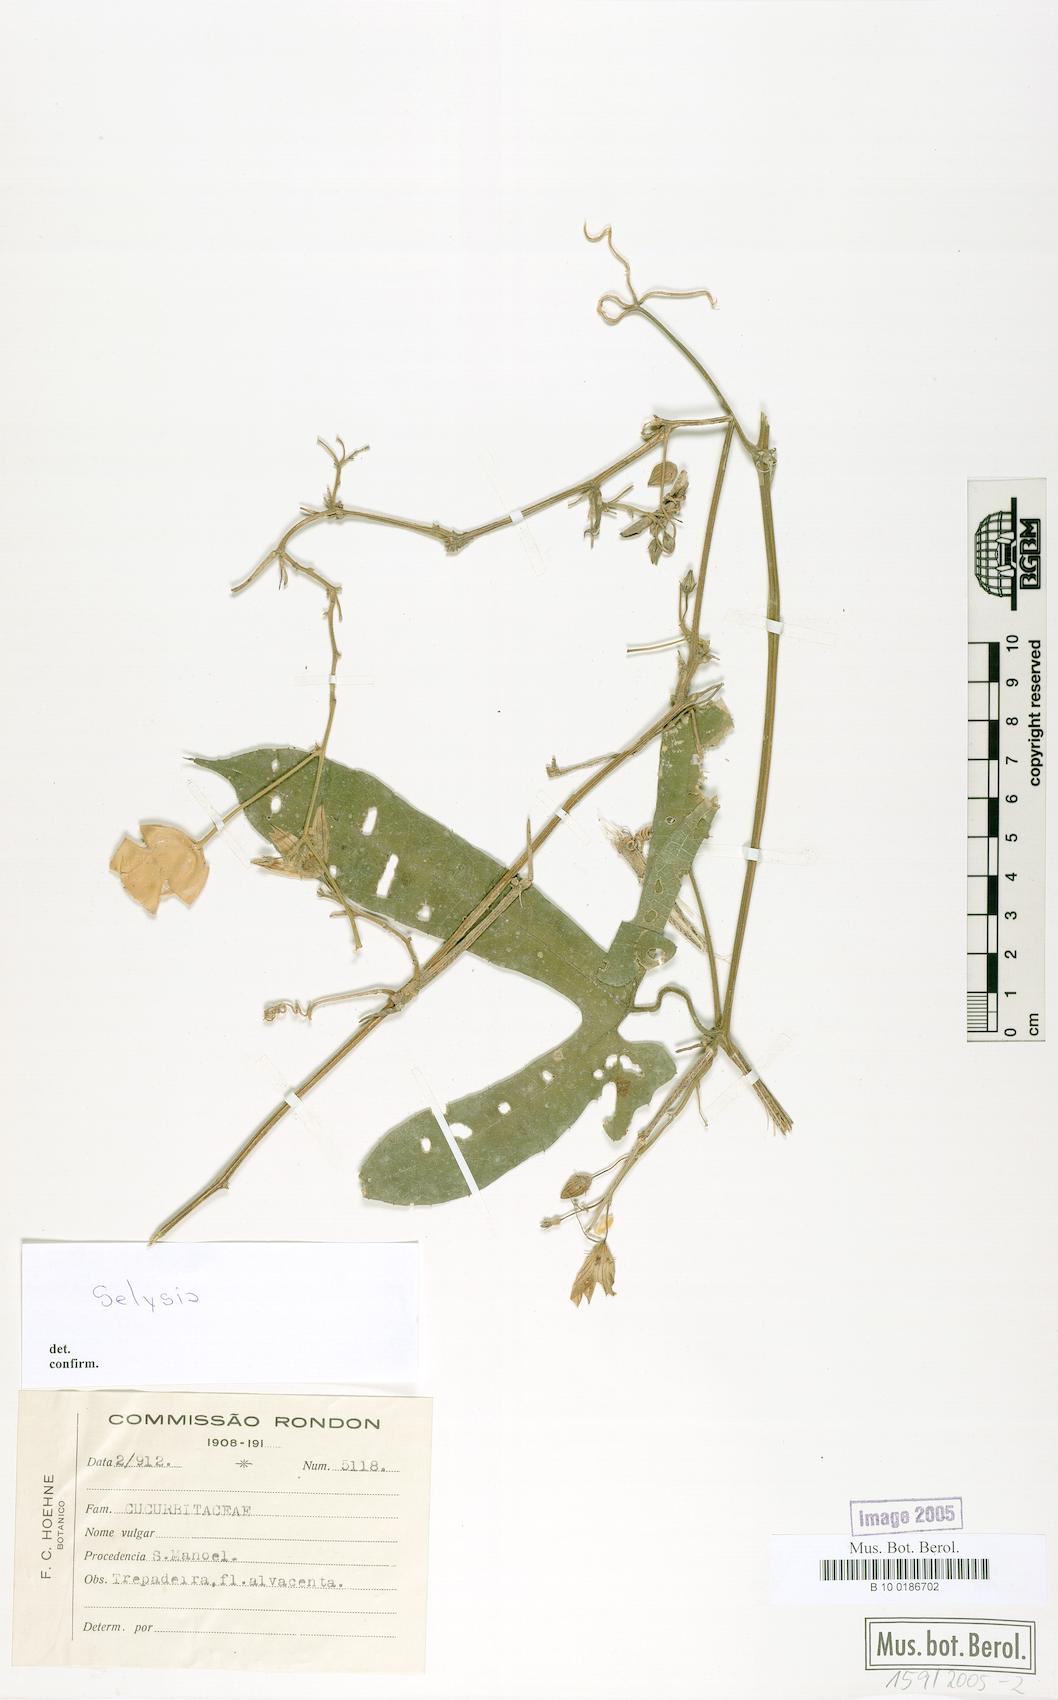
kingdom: Plantae
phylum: Tracheophyta
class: Magnoliopsida
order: Cucurbitales
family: Cucurbitaceae
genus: Selysia
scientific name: Selysia
